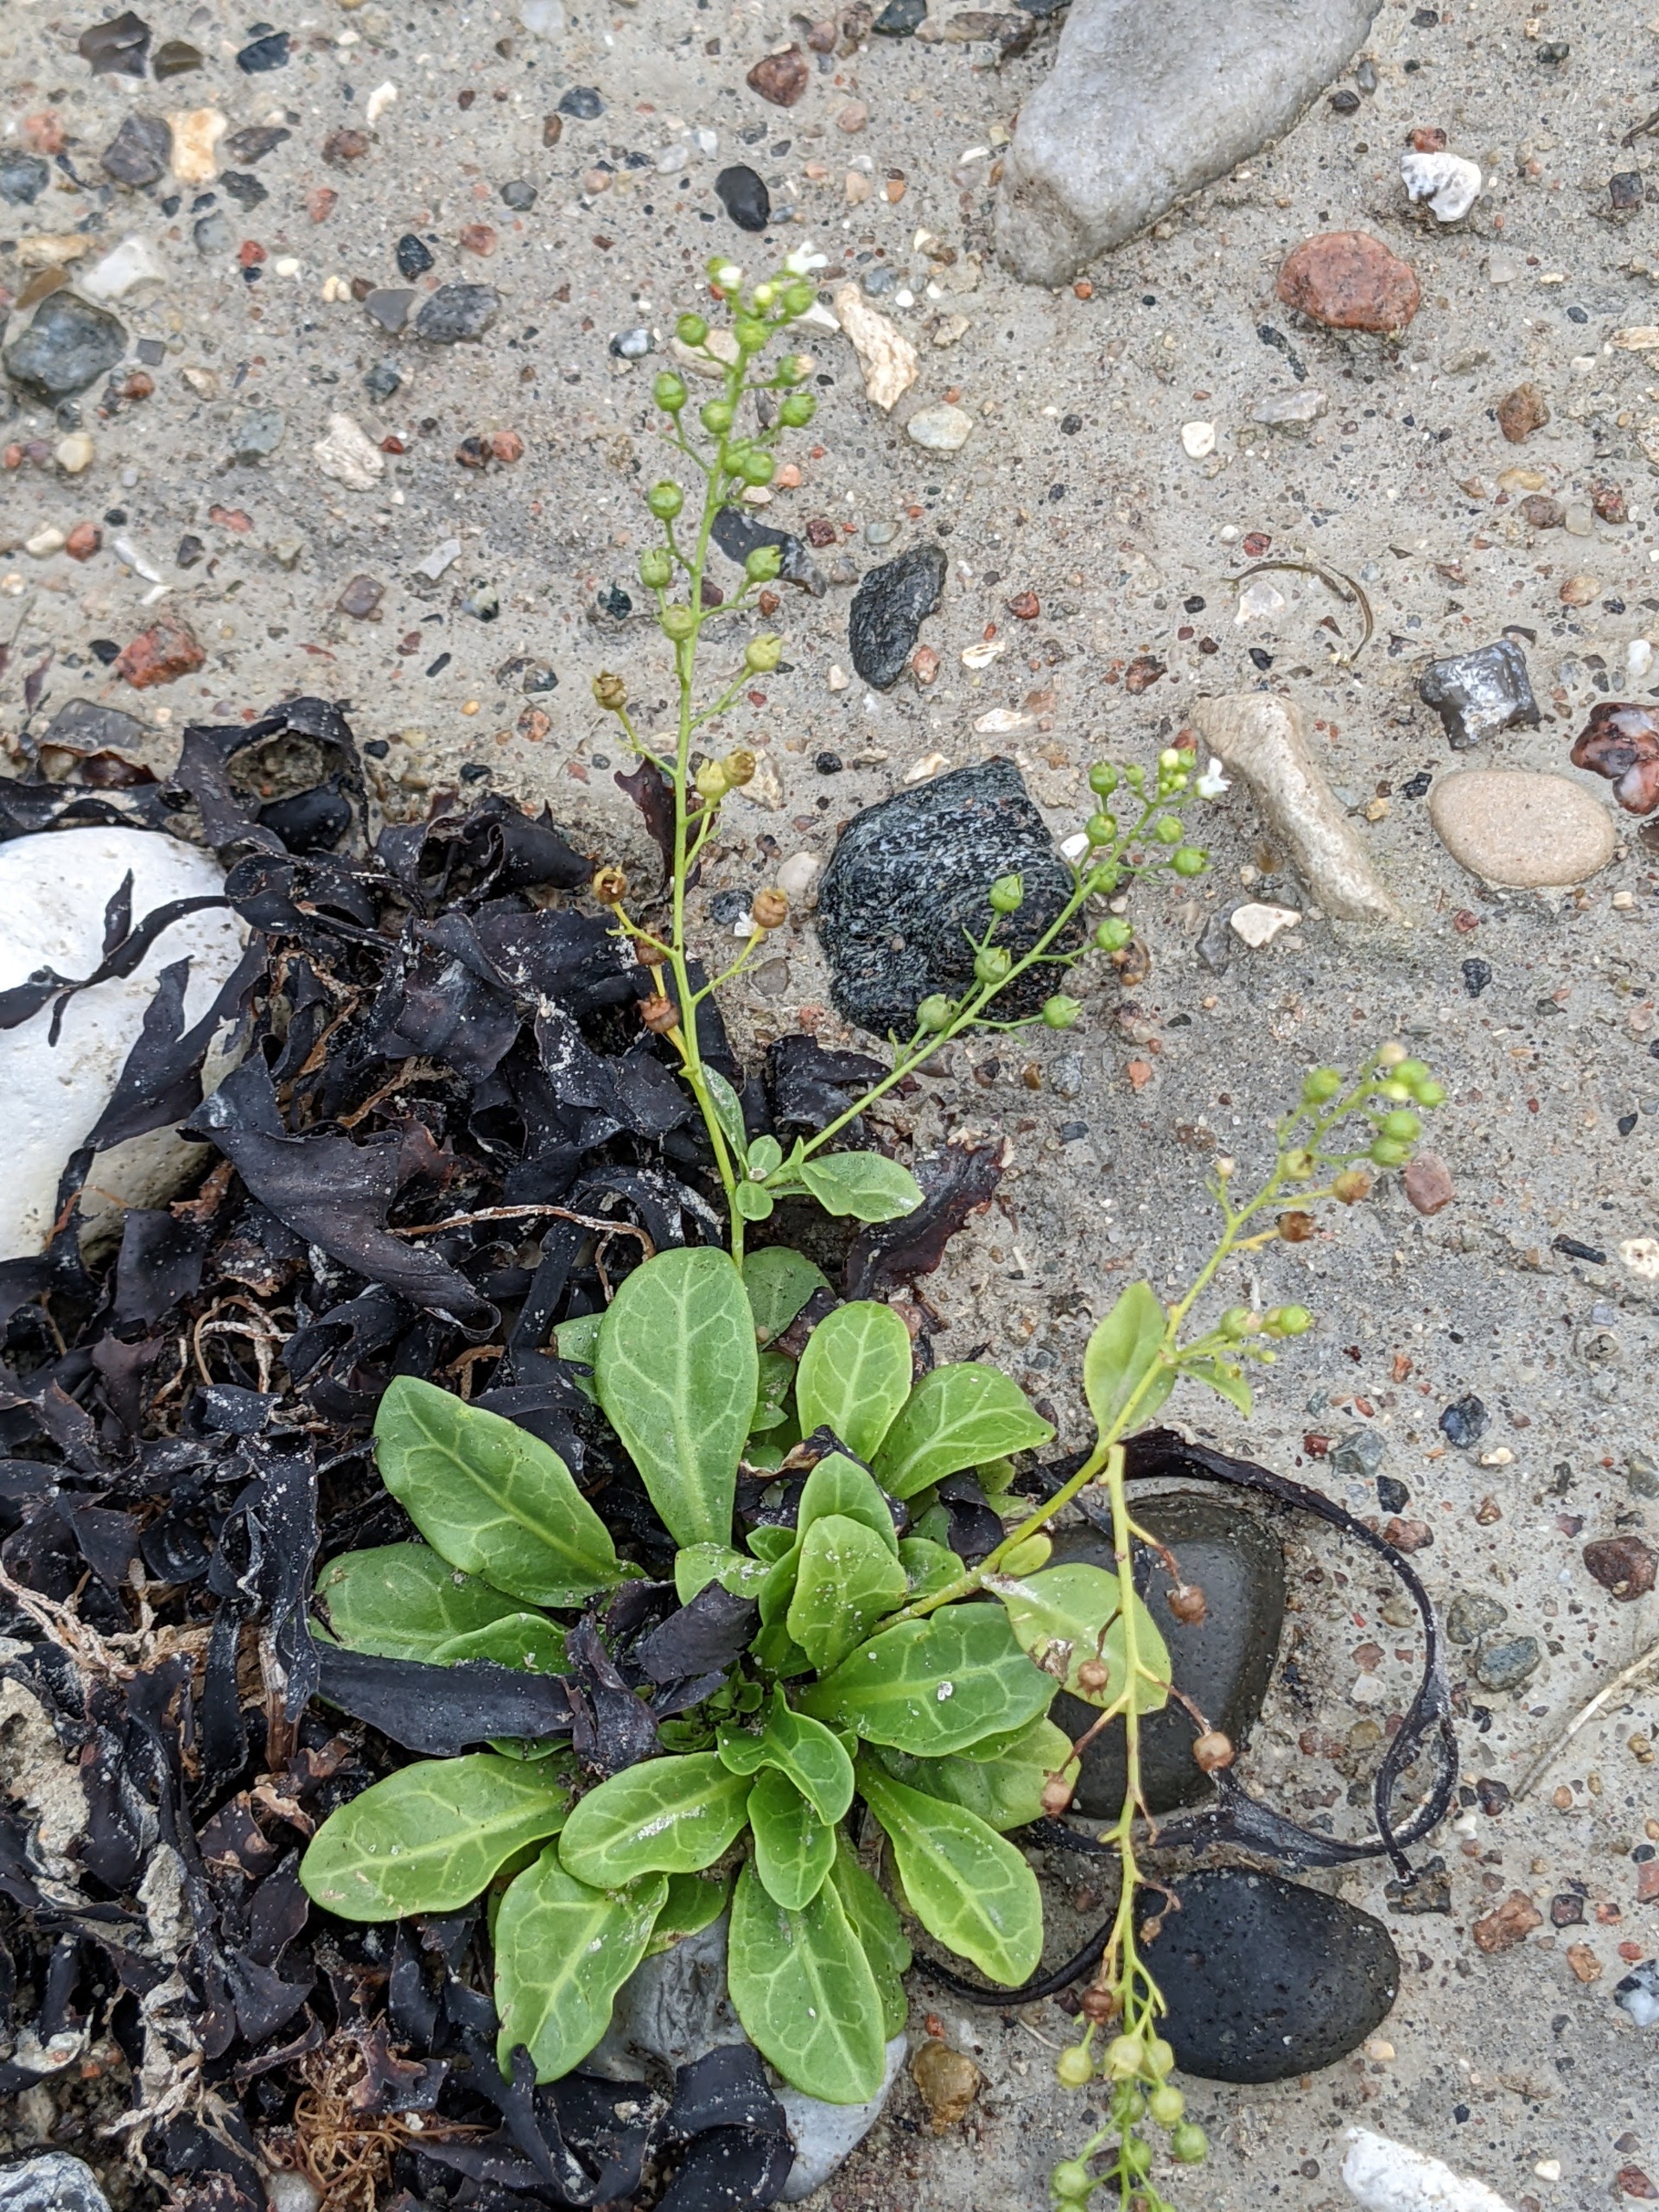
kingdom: Plantae
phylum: Tracheophyta
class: Magnoliopsida
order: Ericales
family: Primulaceae
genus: Samolus
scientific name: Samolus valerandi
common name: Samel
